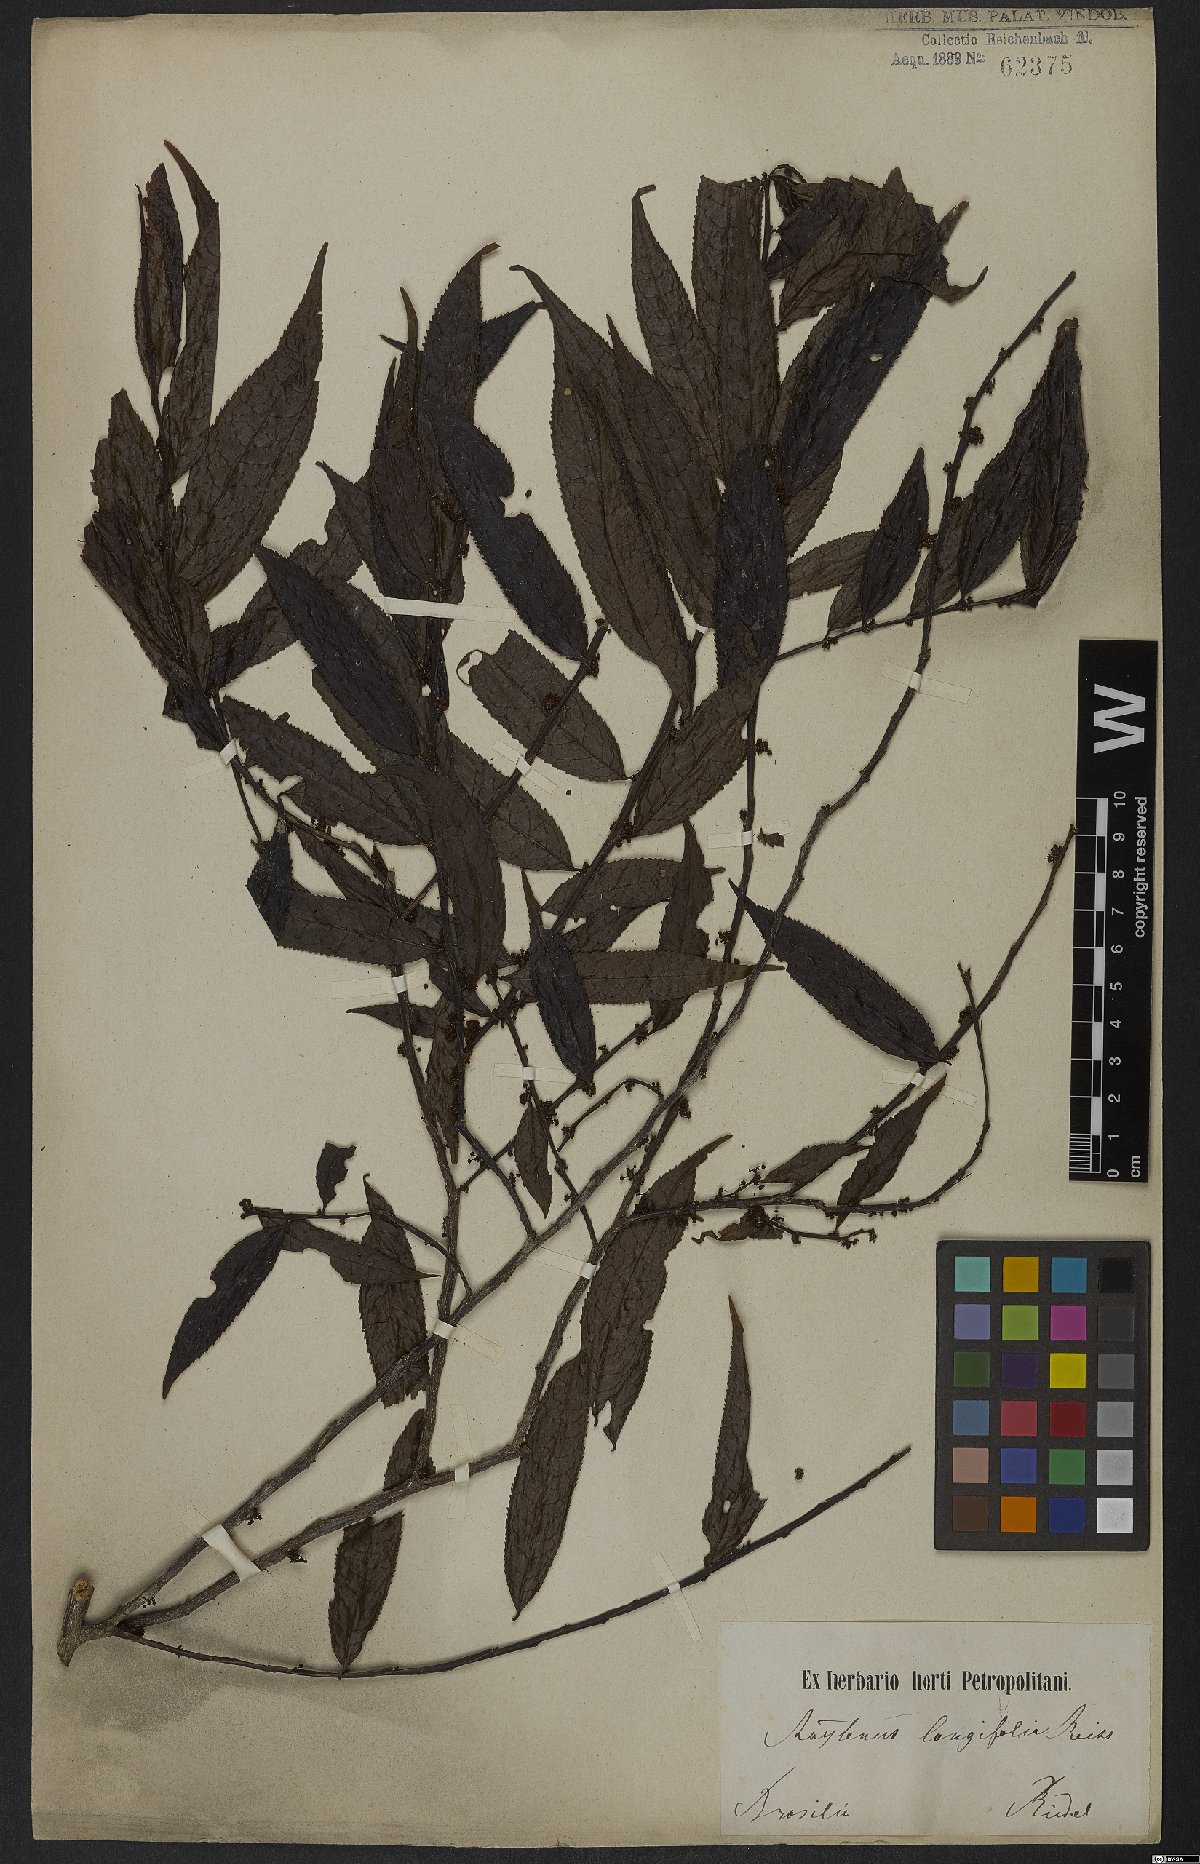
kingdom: Plantae
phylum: Tracheophyta
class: Magnoliopsida
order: Celastrales
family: Celastraceae
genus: Maytenus
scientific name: Maytenus salicifolia
